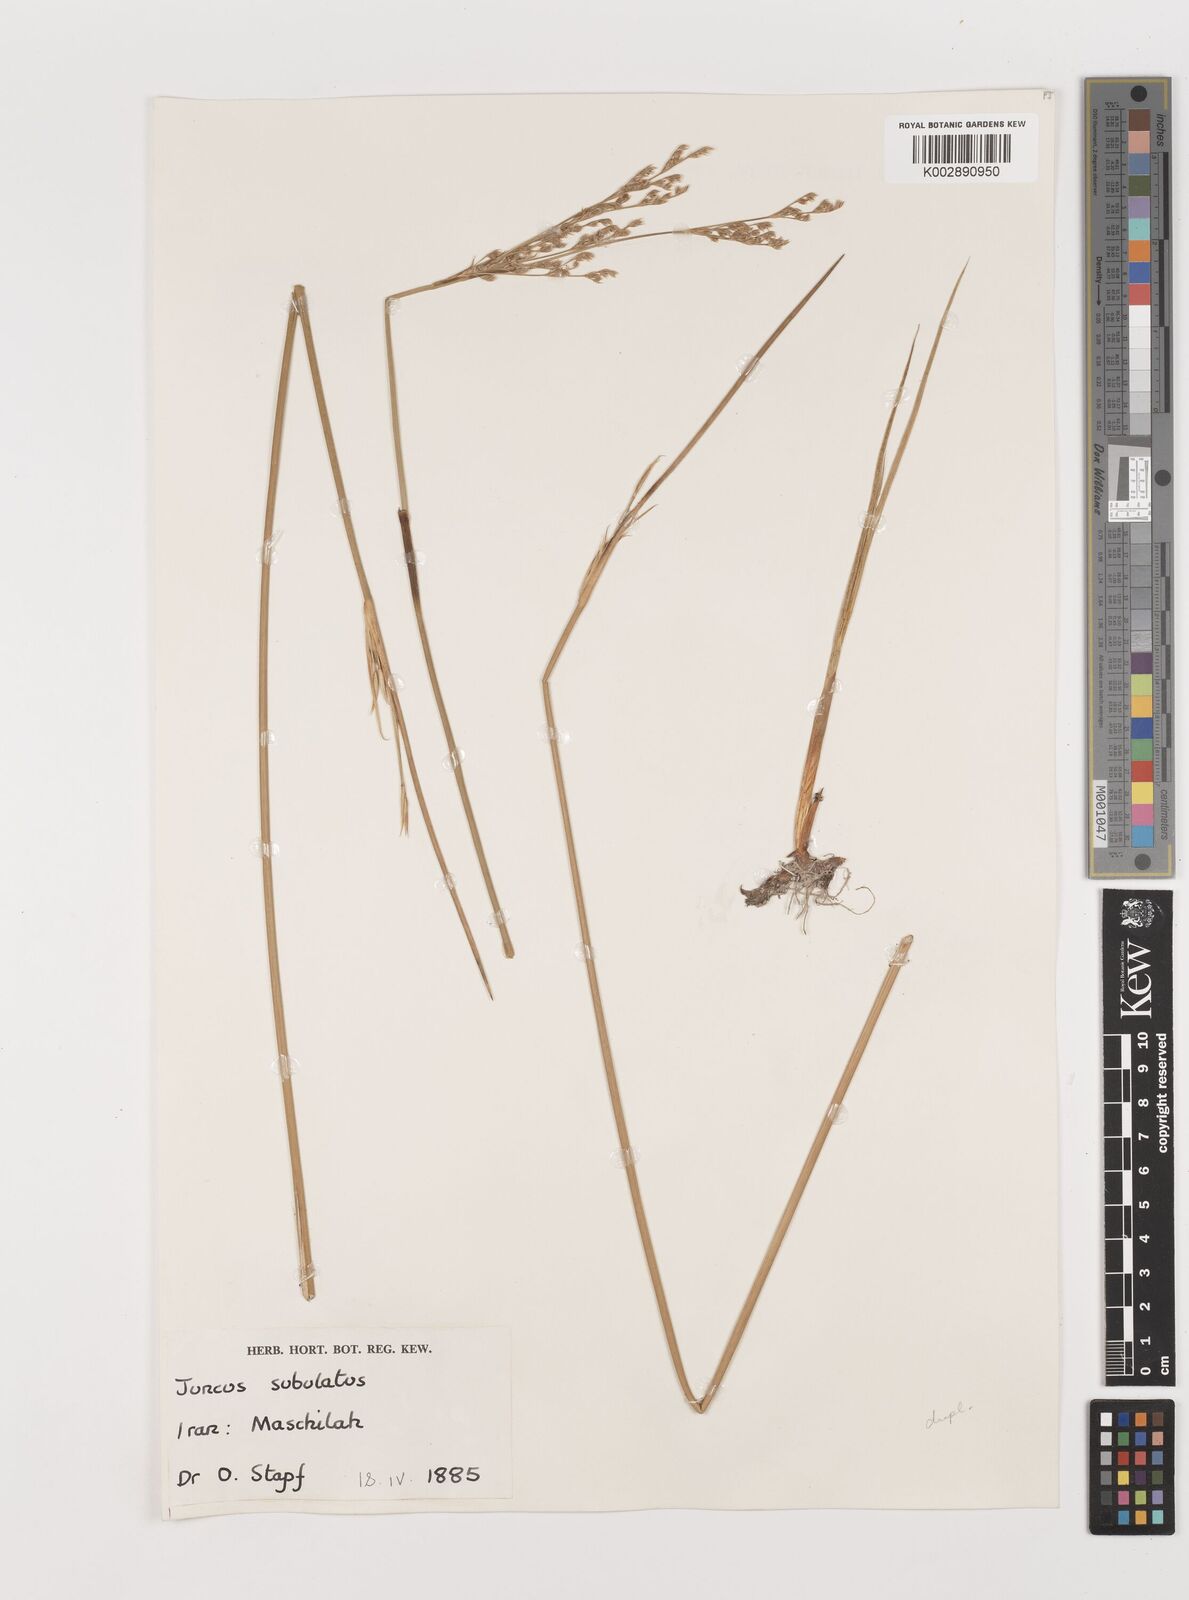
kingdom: Plantae
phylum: Tracheophyta
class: Liliopsida
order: Poales
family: Juncaceae
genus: Juncus
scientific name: Juncus subulatus
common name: Somerset rush
